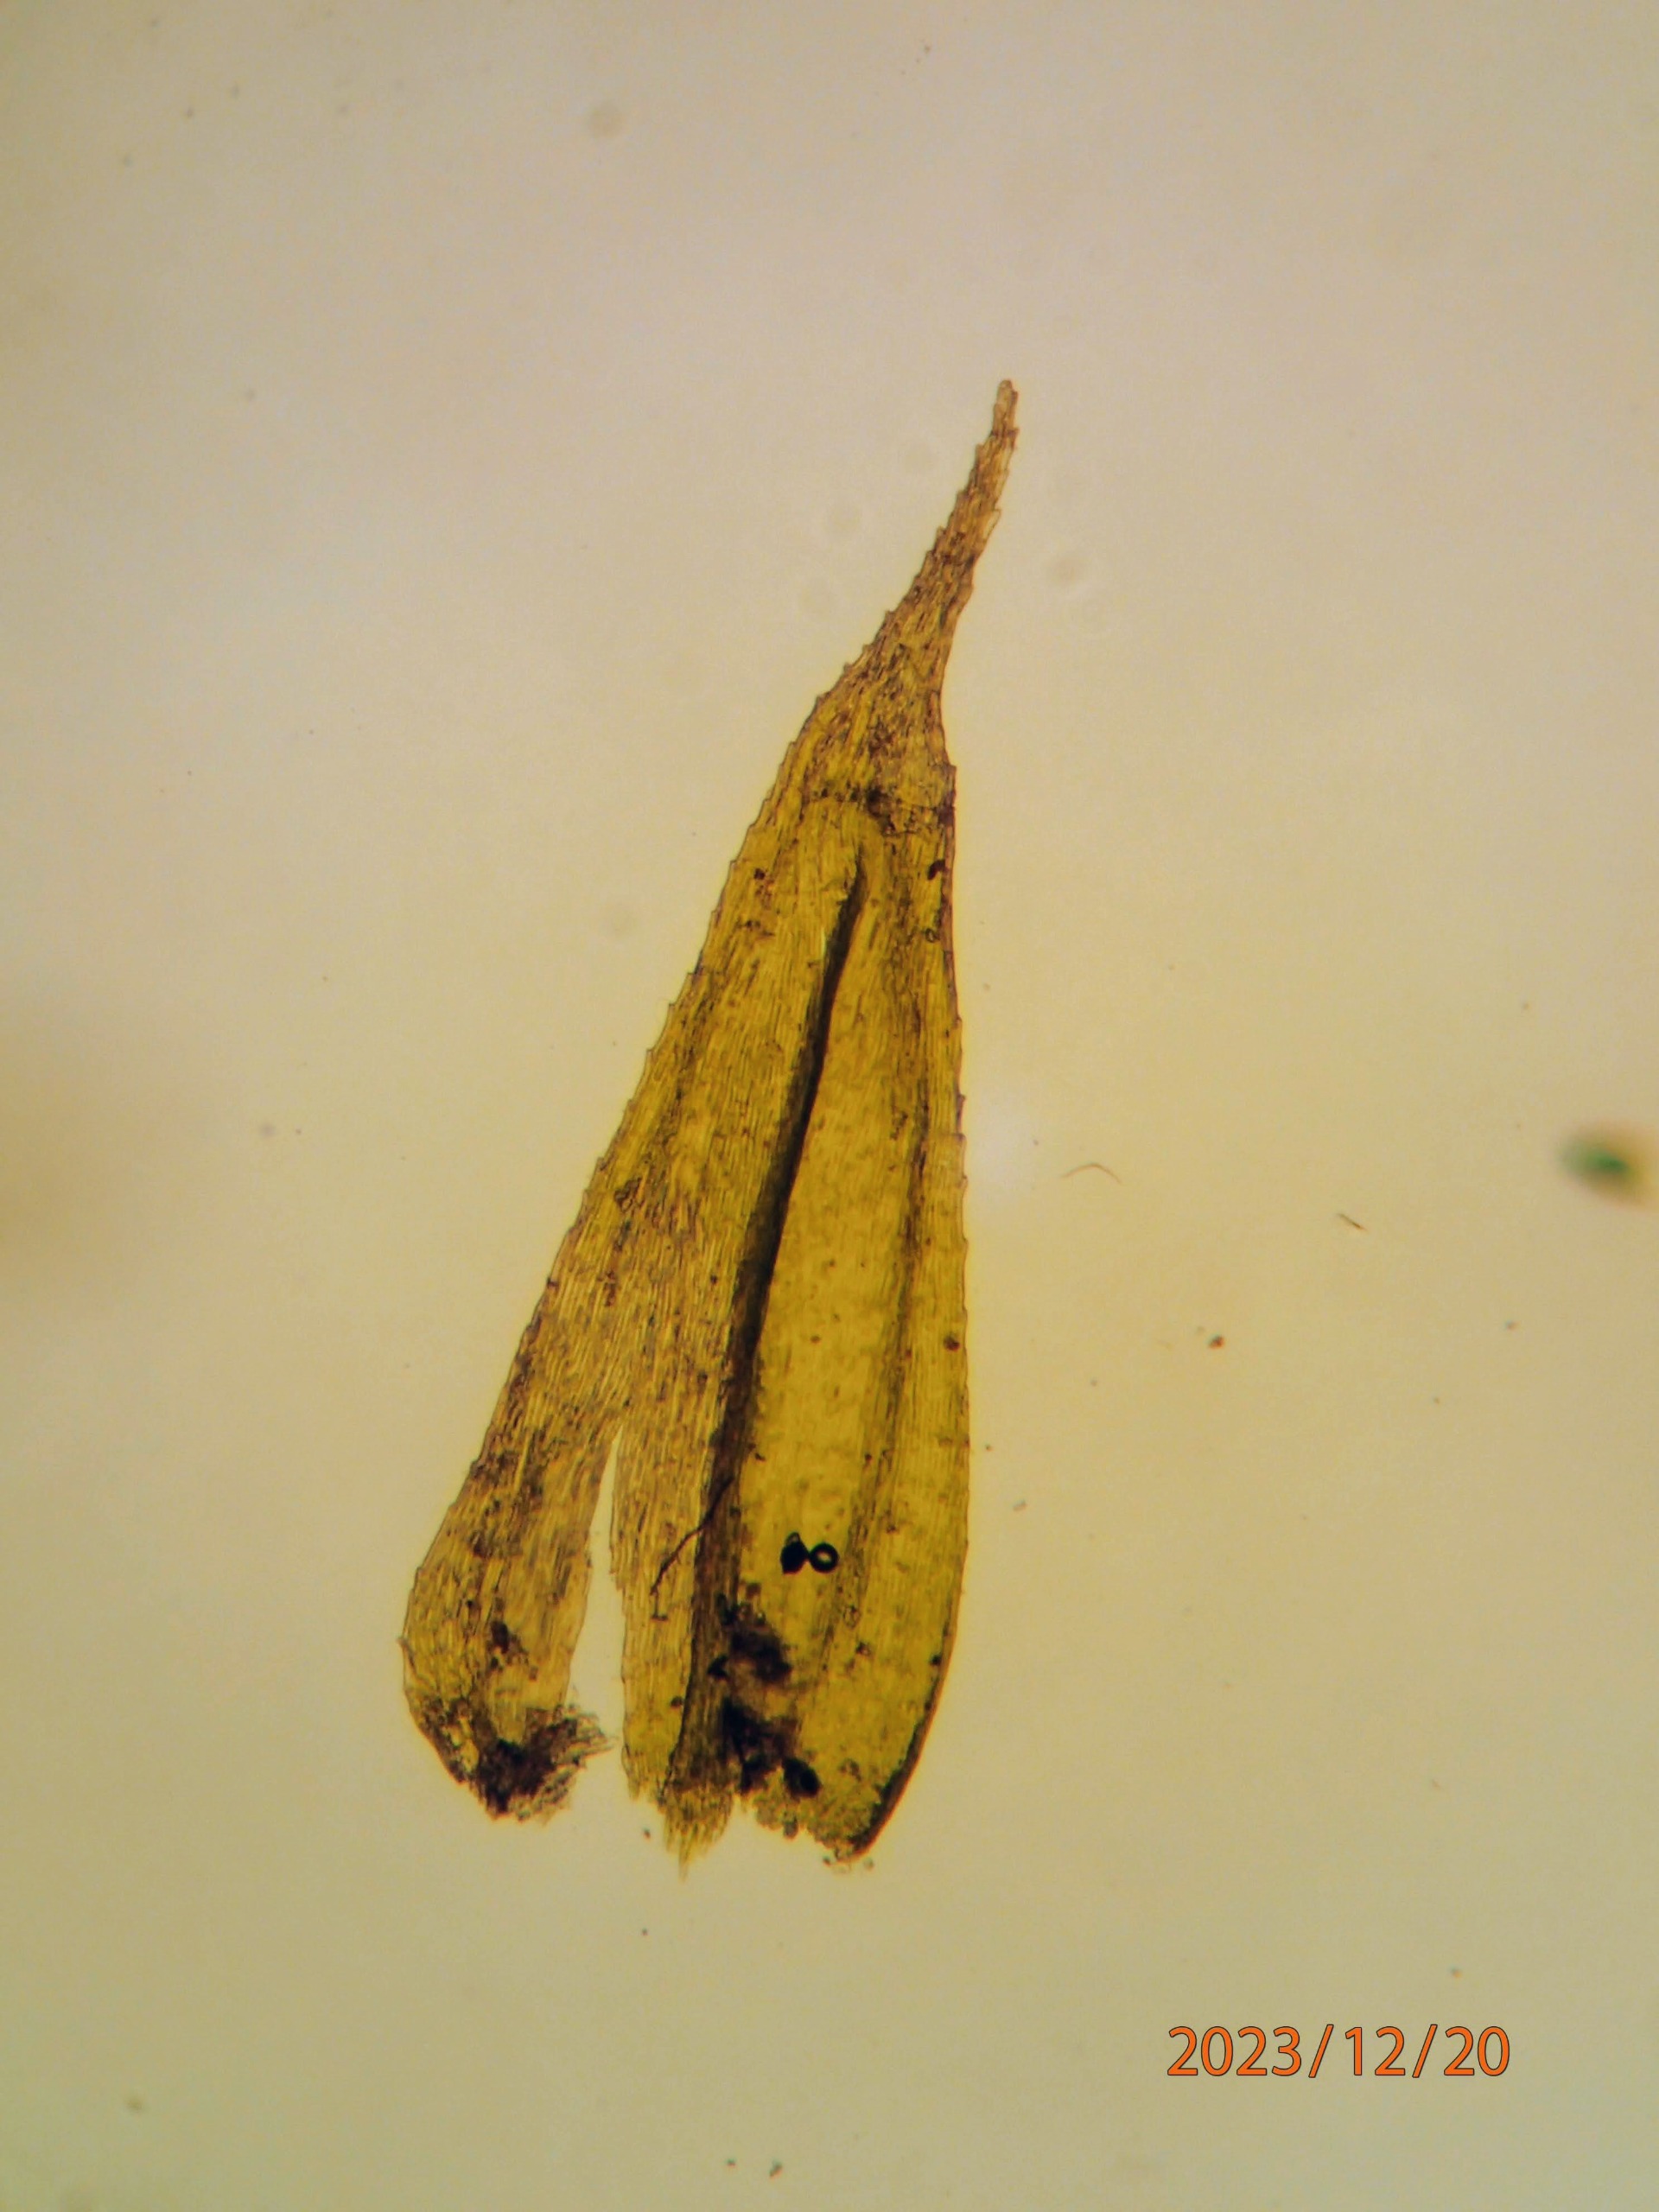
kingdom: Plantae
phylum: Bryophyta
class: Bryopsida
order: Hypnales
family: Brachytheciaceae
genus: Brachytheciastrum
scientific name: Brachytheciastrum velutinum
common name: Fløjls-kortkapsel
